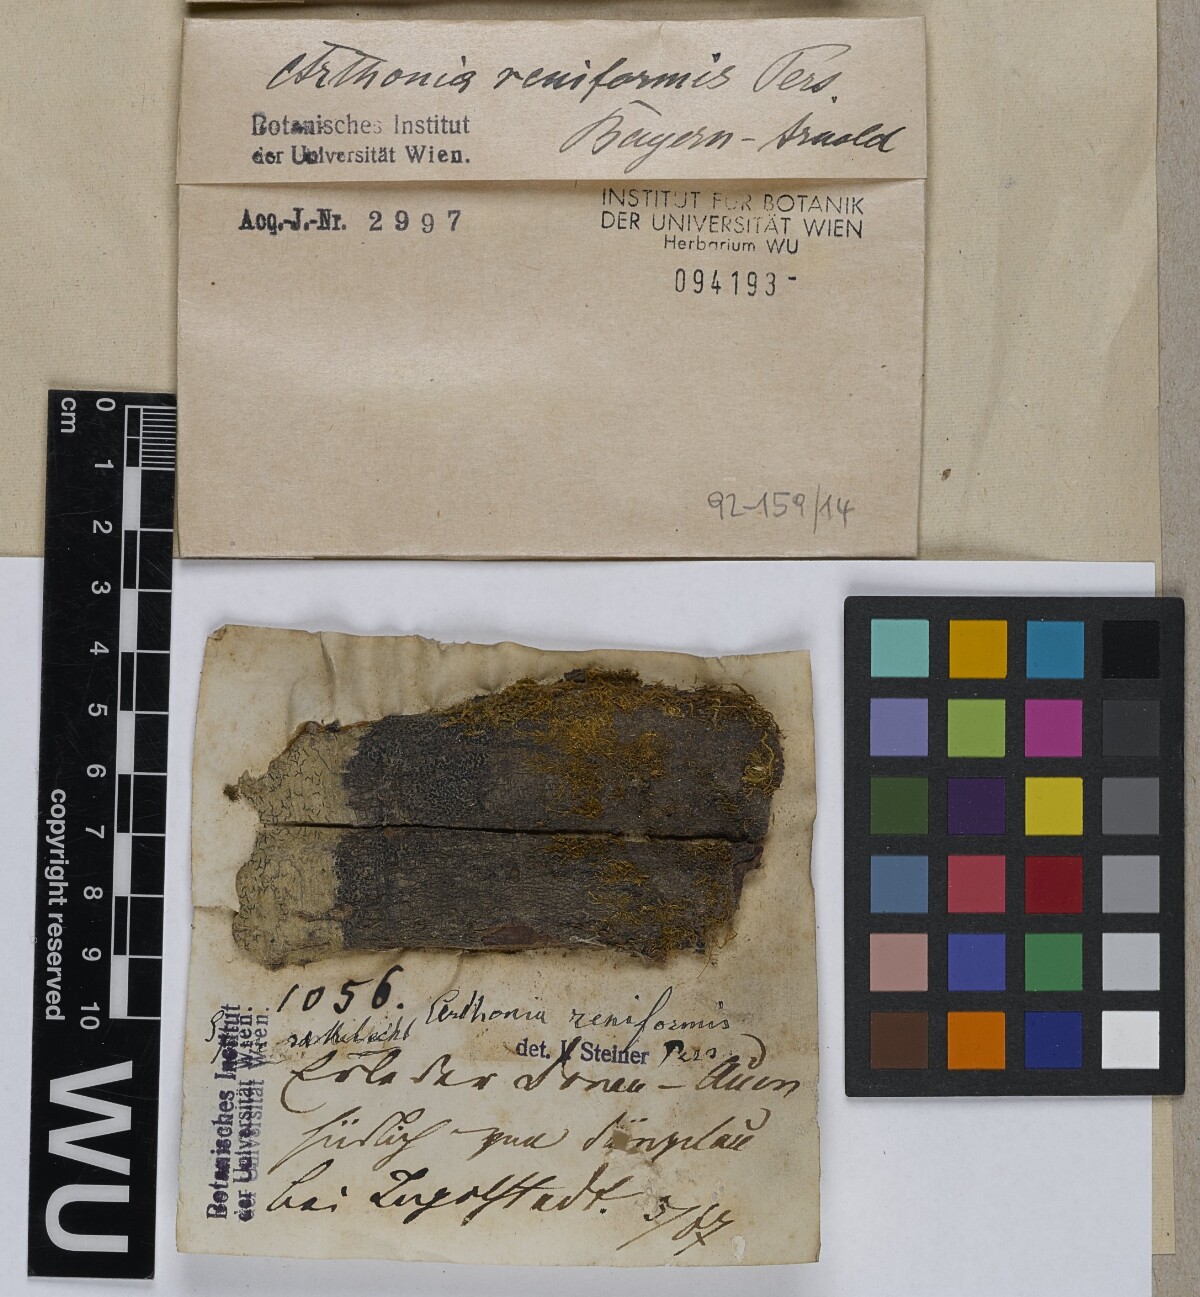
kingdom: Fungi
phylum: Ascomycota
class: Arthoniomycetes
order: Arthoniales
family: Arthoniaceae
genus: Arthonia
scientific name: Arthonia reniformis
